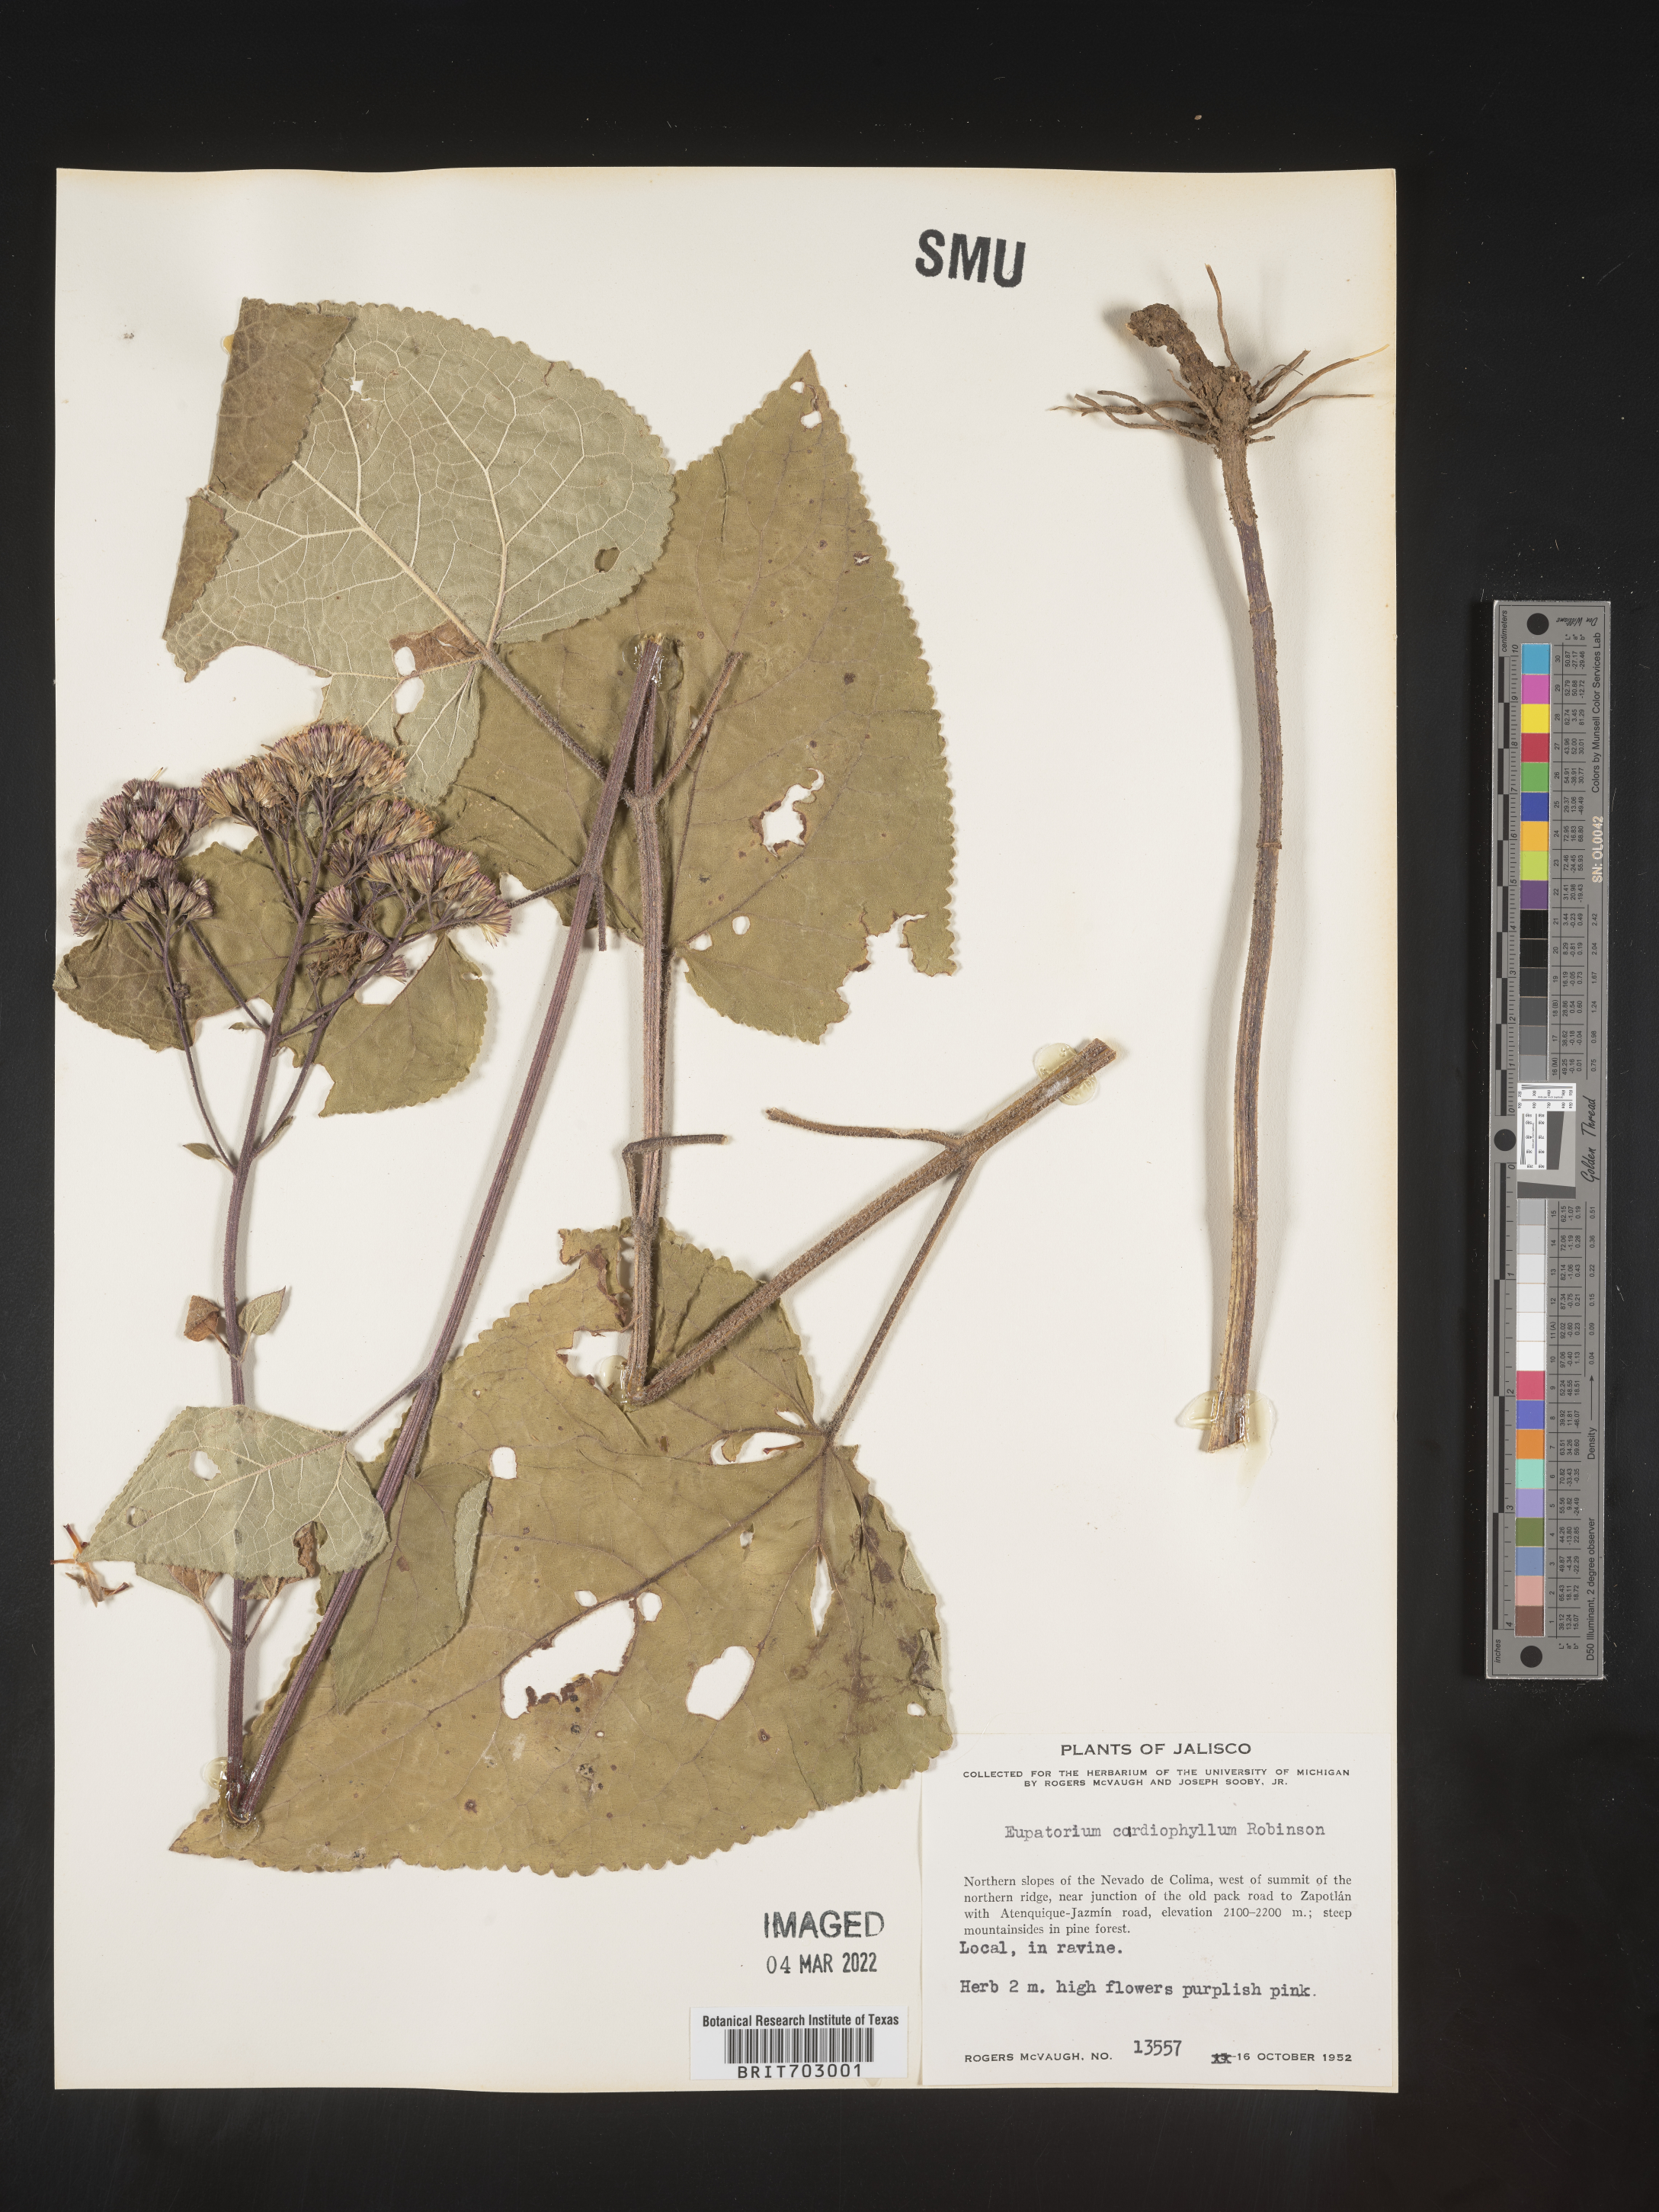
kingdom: Plantae
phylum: Tracheophyta
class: Magnoliopsida
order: Asterales
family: Asteraceae
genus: Eupatorium
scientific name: Eupatorium
